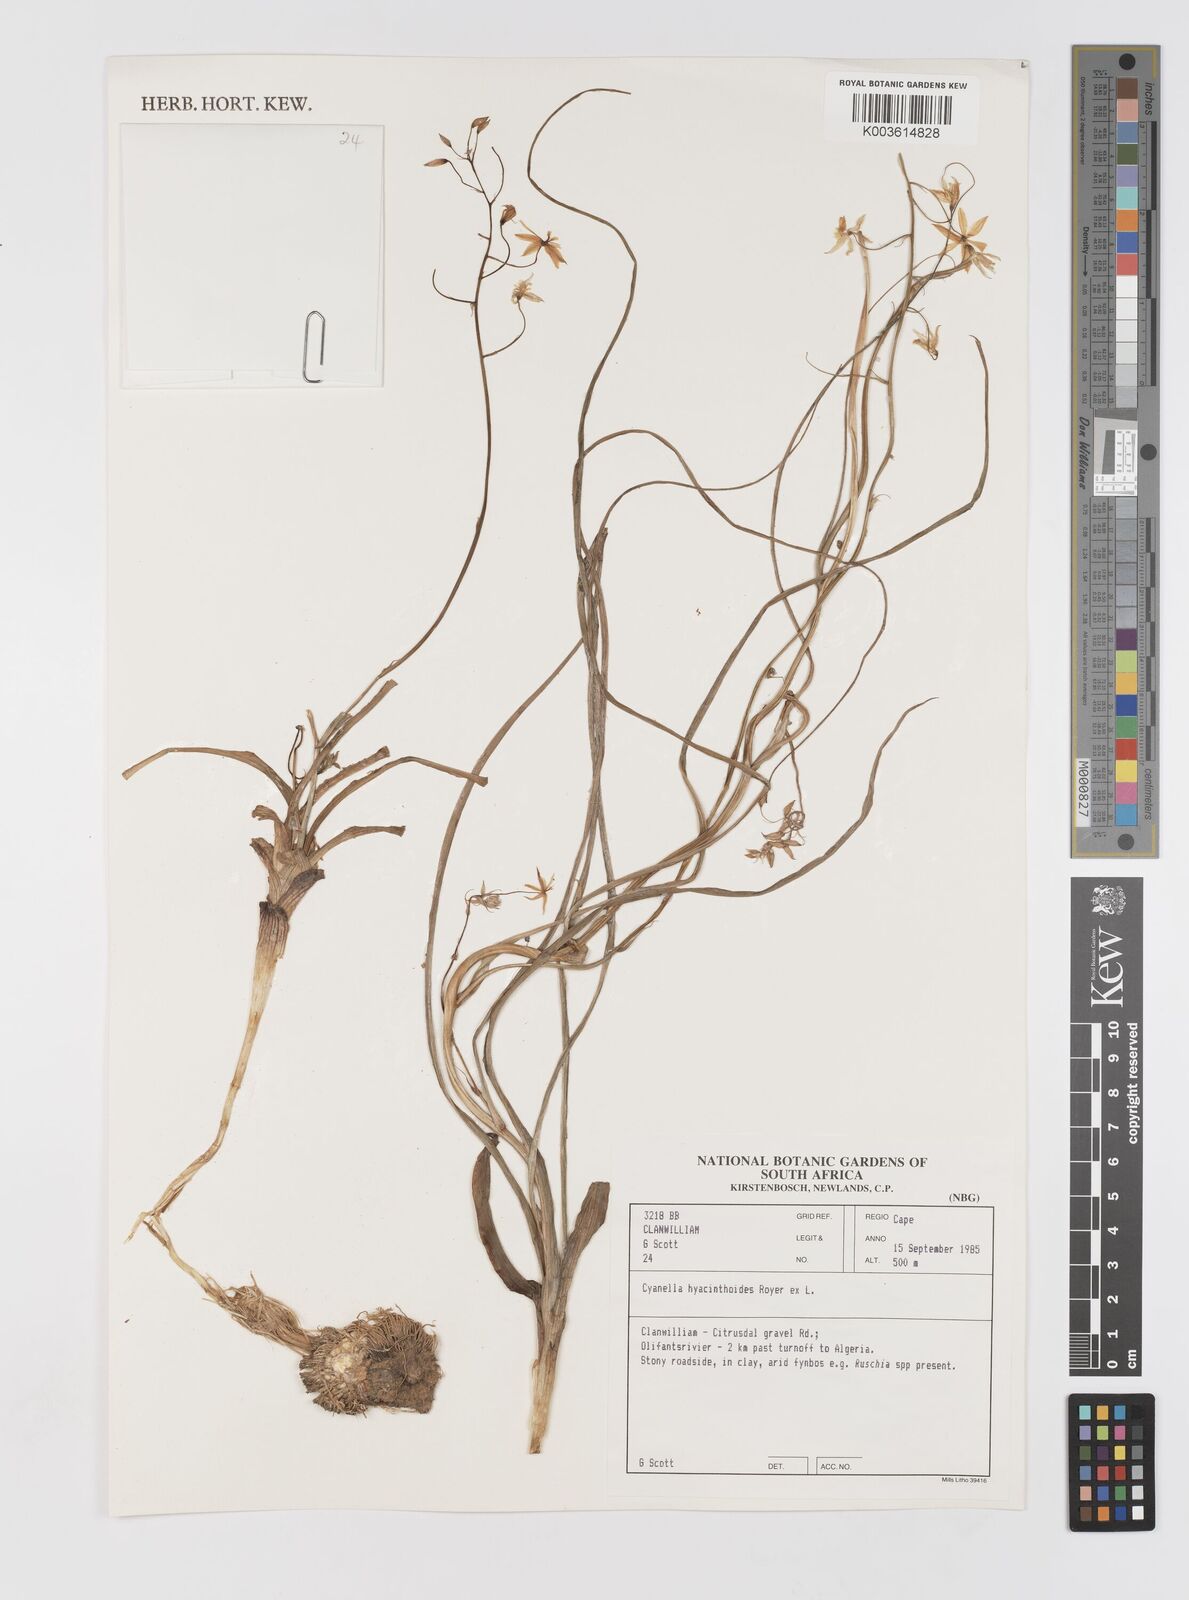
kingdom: Plantae
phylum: Tracheophyta
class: Liliopsida
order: Asparagales
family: Tecophilaeaceae
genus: Cyanella
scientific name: Cyanella hyacinthoides
